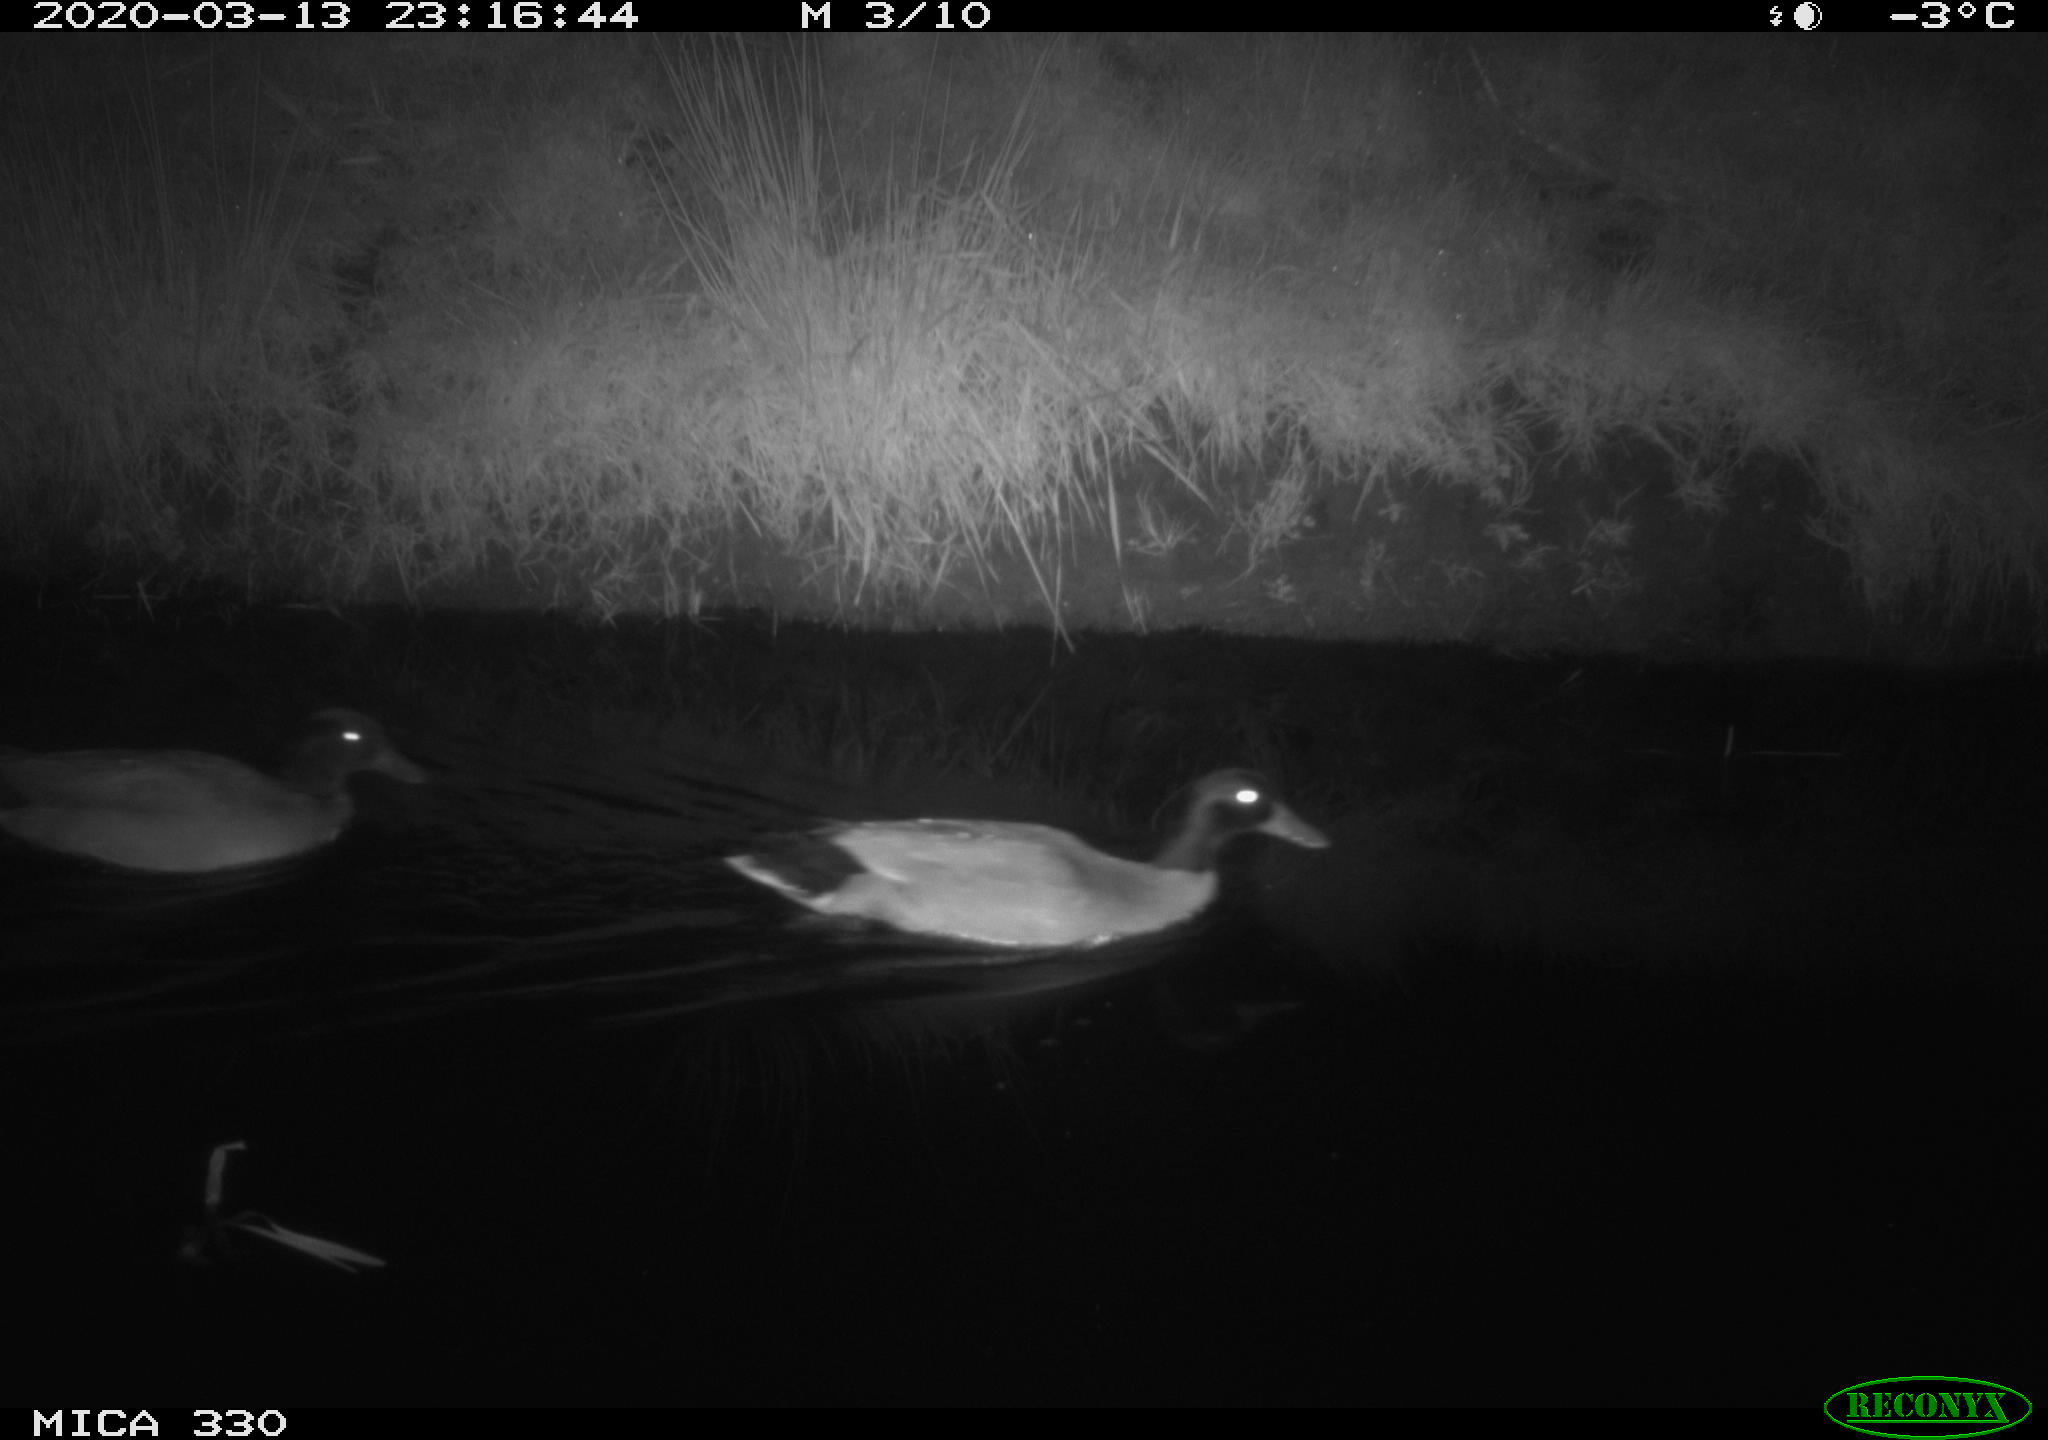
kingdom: Animalia
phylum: Chordata
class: Aves
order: Anseriformes
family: Anatidae
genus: Anas
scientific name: Anas platyrhynchos
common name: Mallard
